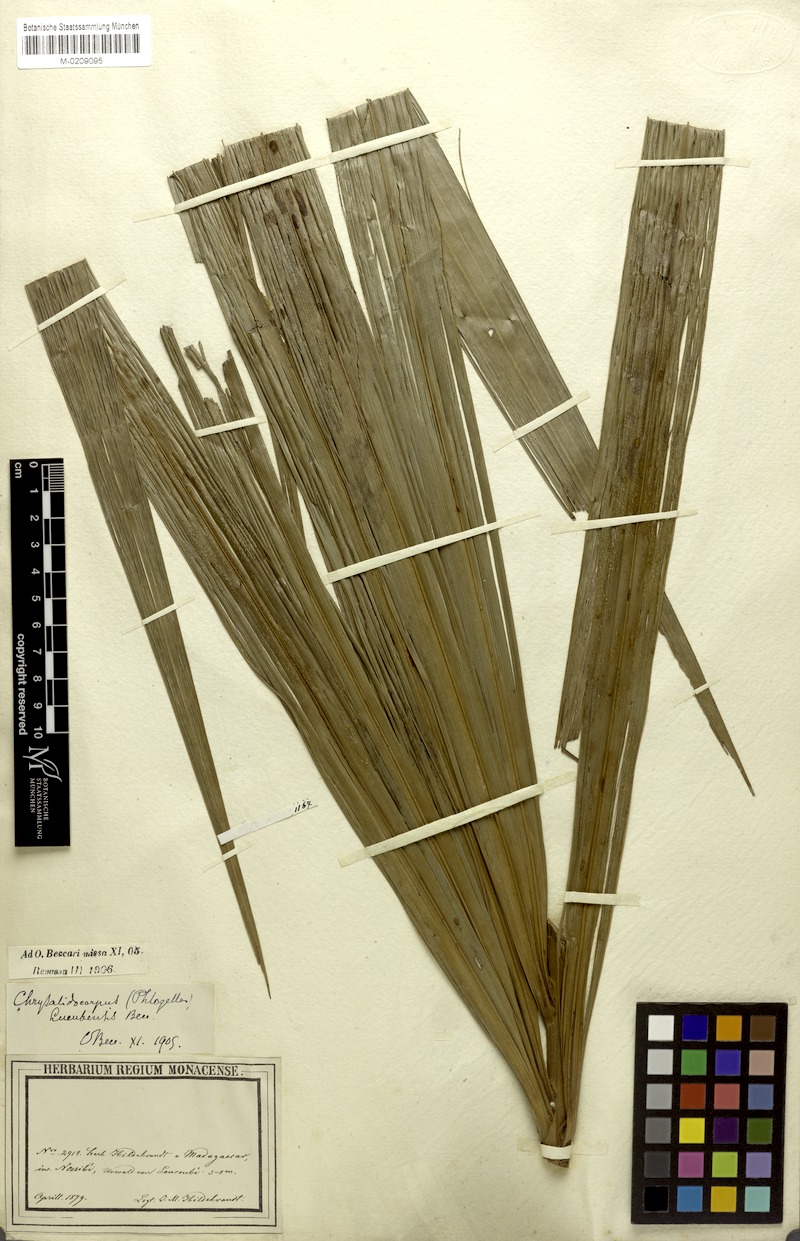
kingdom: Plantae
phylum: Tracheophyta
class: Liliopsida
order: Arecales
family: Arecaceae
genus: Dypsis
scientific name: Dypsis madagascariensis
